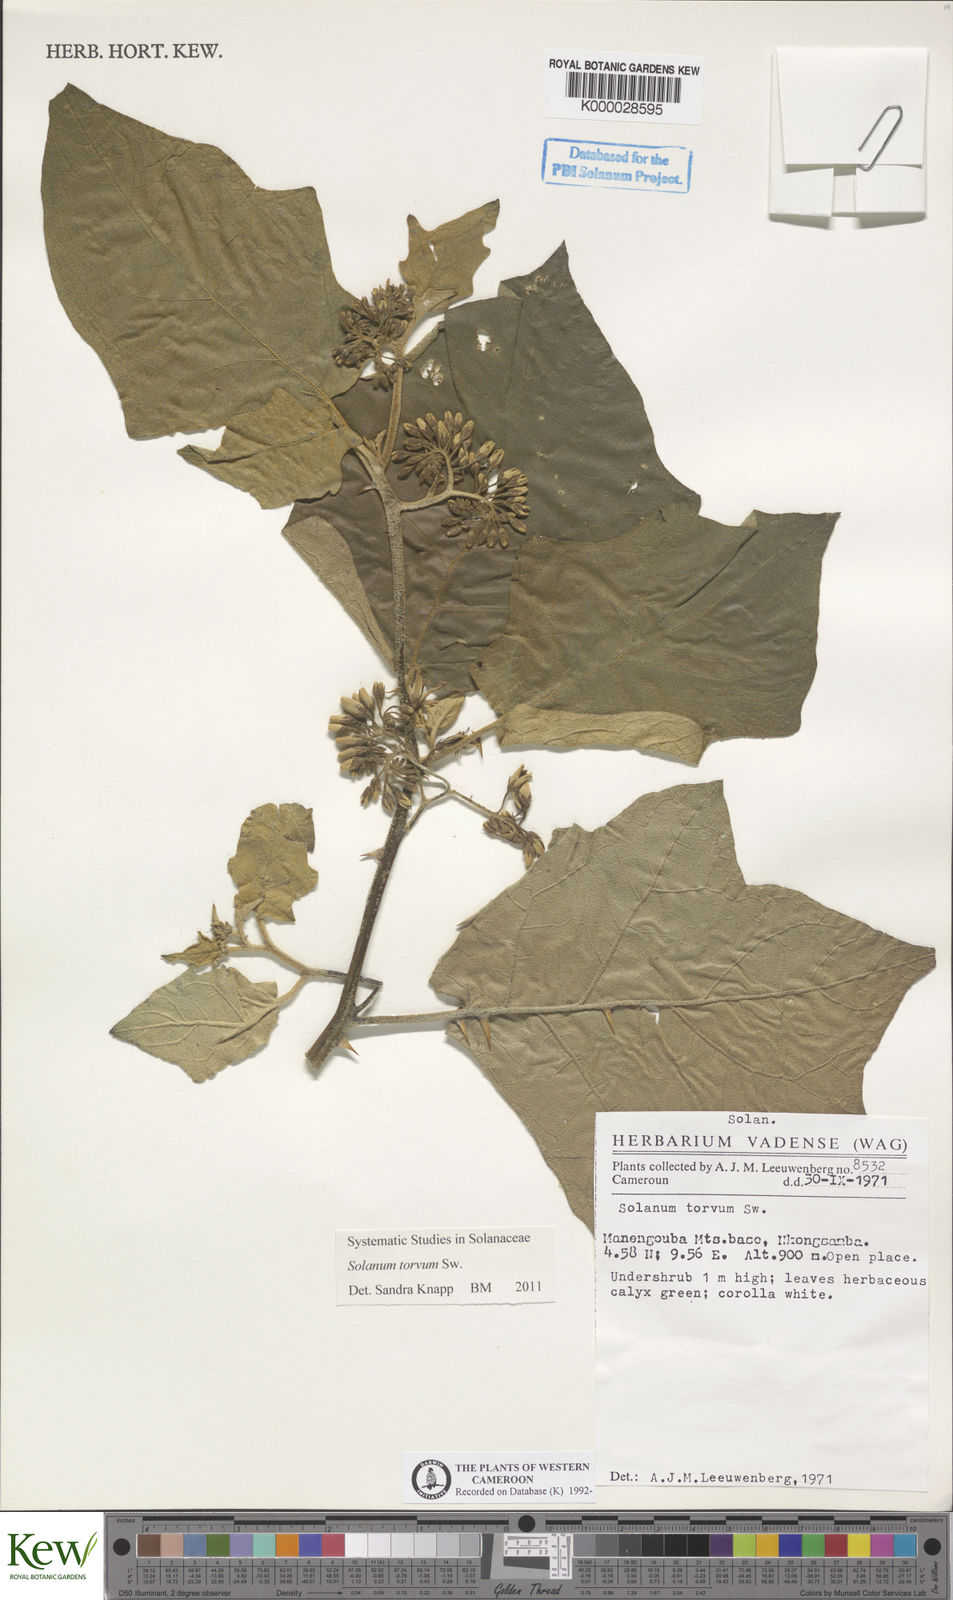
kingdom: Plantae
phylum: Tracheophyta
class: Magnoliopsida
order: Solanales
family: Solanaceae
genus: Solanum
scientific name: Solanum torvum
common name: Turkey berry
